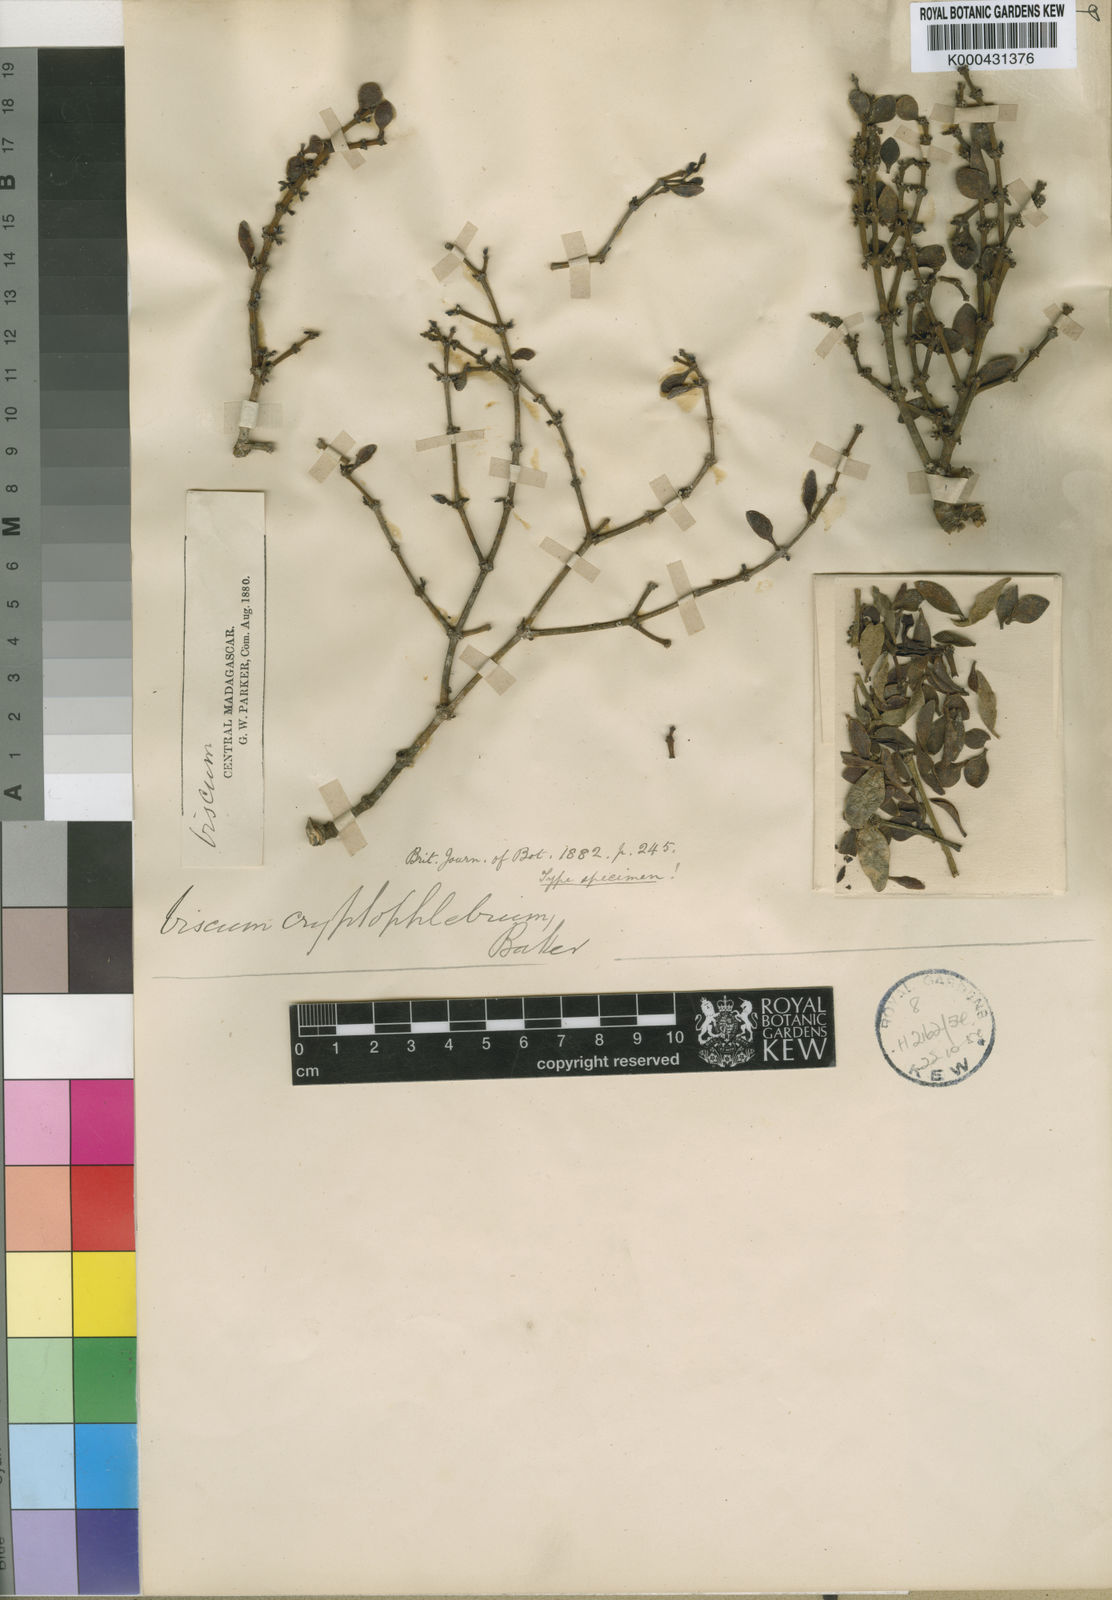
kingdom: Plantae
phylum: Tracheophyta
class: Magnoliopsida
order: Santalales
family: Viscaceae
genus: Viscum
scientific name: Viscum cuneifolium
